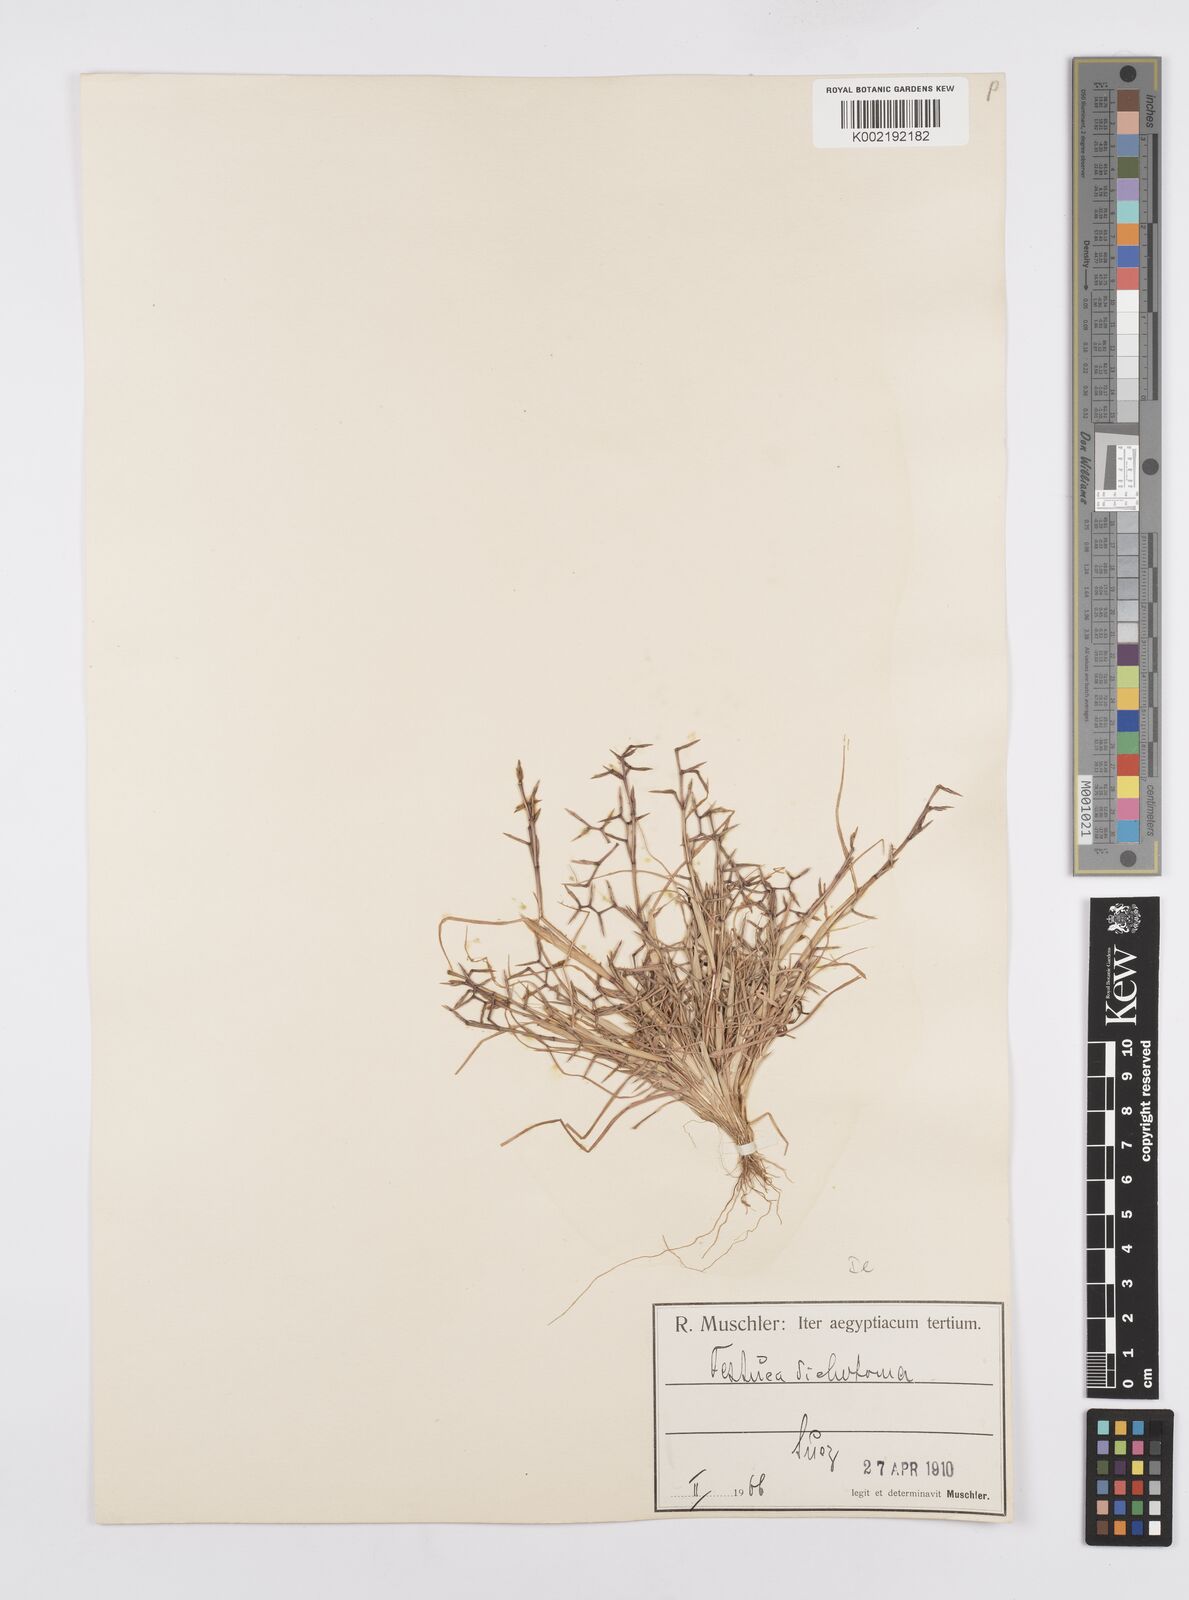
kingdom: Plantae
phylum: Tracheophyta
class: Liliopsida
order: Poales
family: Poaceae
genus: Cutandia
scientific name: Cutandia dichotoma
